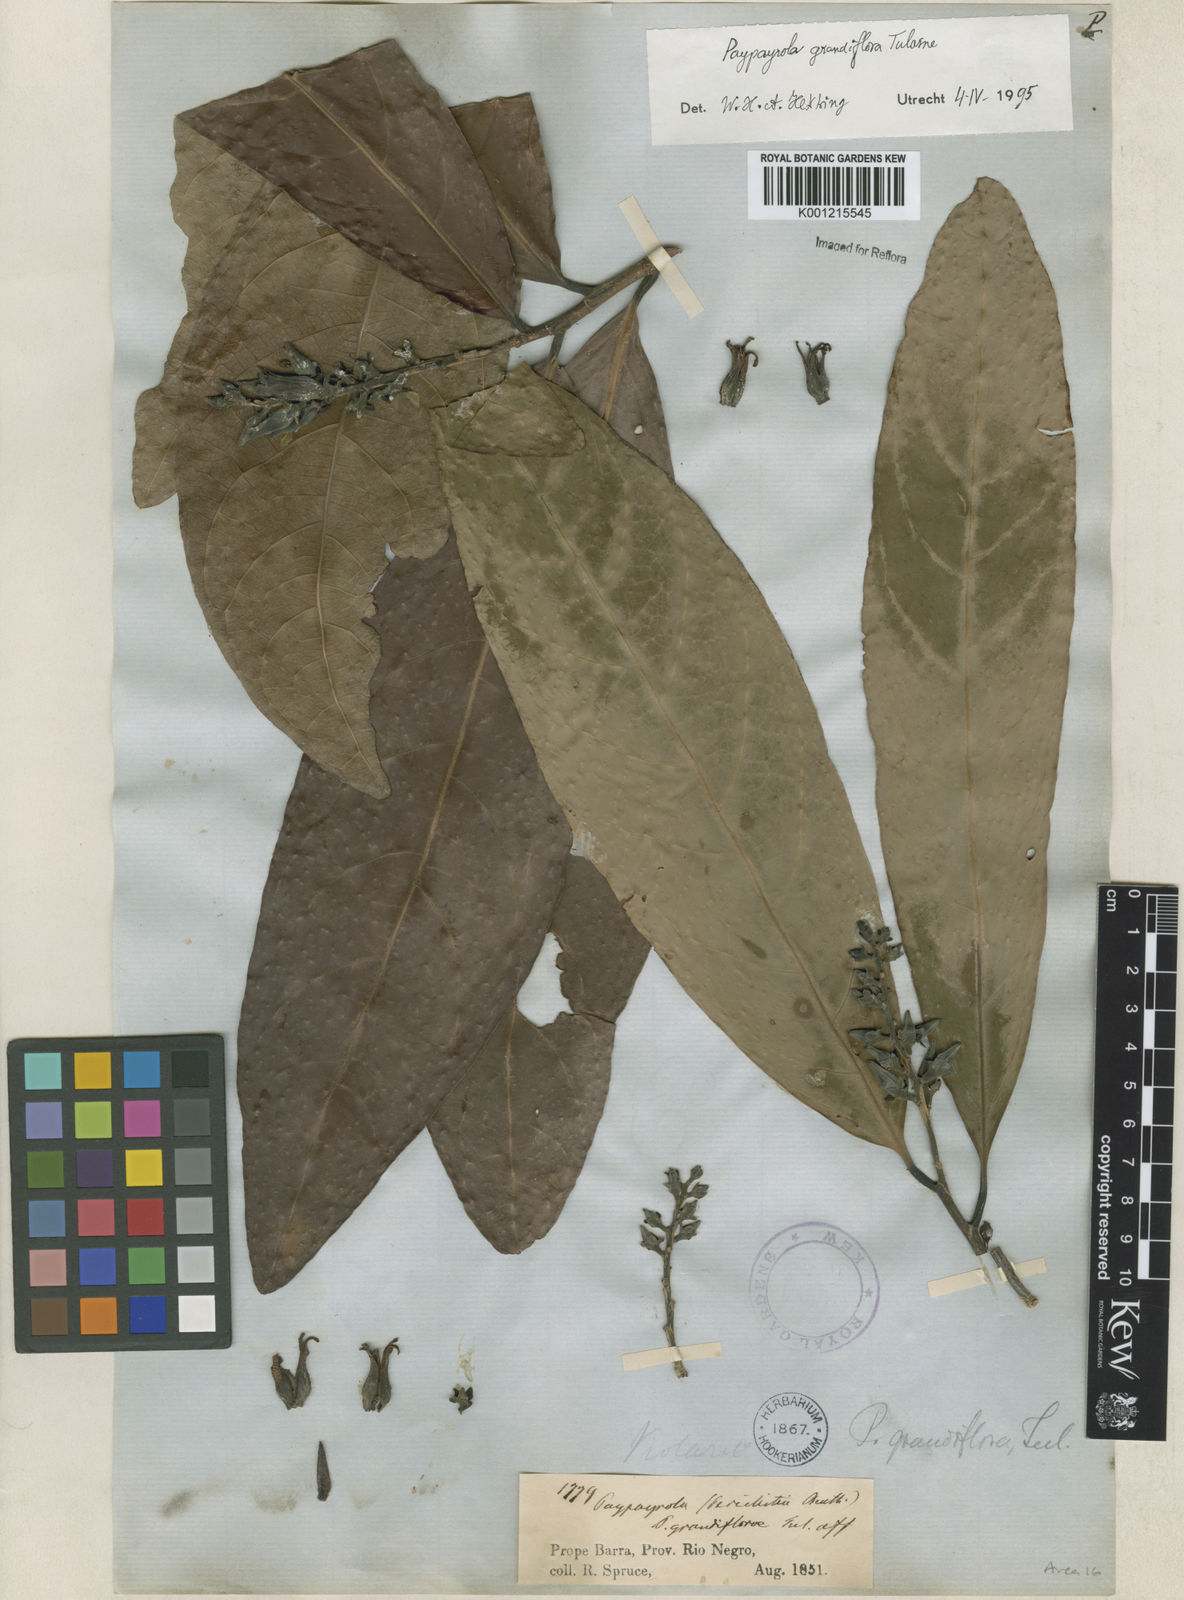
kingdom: Plantae
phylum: Tracheophyta
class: Magnoliopsida
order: Malpighiales
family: Violaceae
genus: Paypayrola
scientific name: Paypayrola grandiflora
